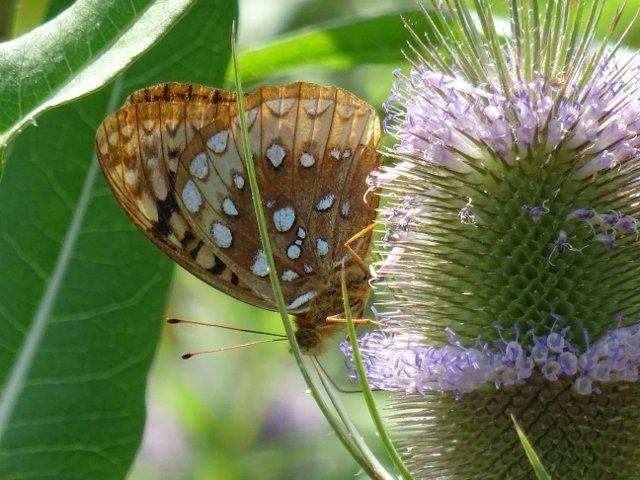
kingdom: Animalia
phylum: Arthropoda
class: Insecta
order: Lepidoptera
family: Nymphalidae
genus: Speyeria
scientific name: Speyeria cybele
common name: Great Spangled Fritillary
